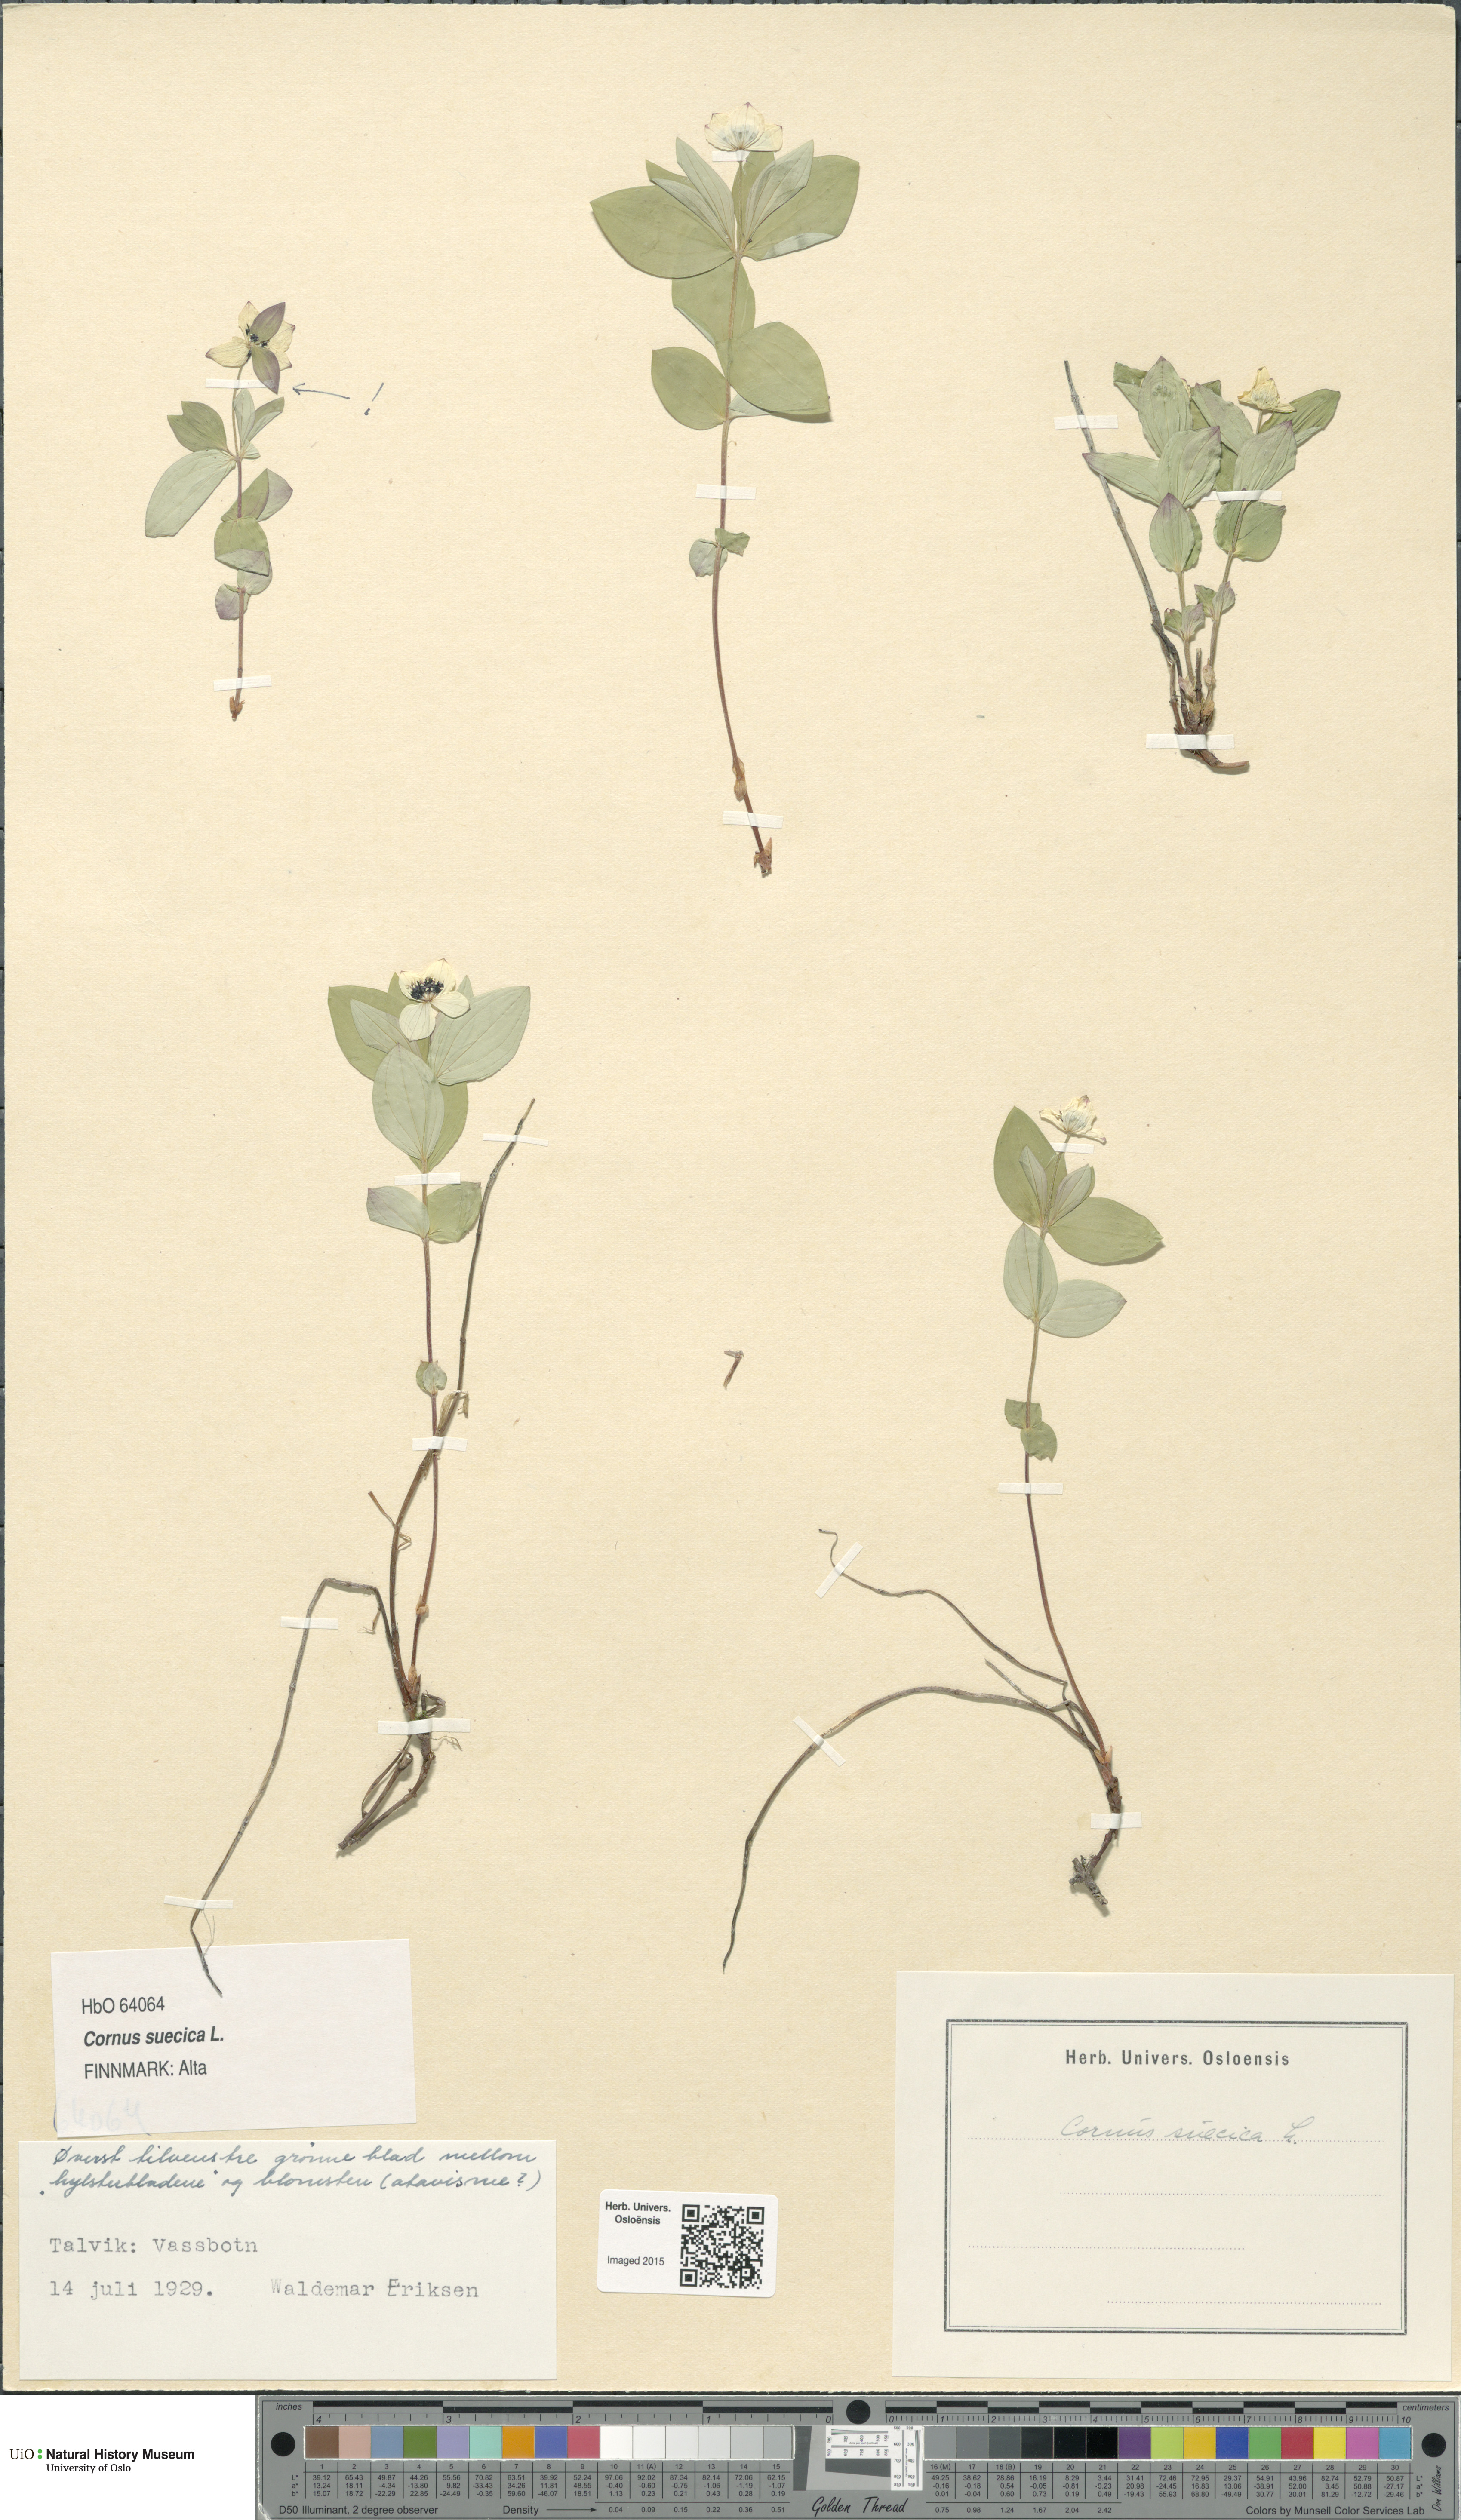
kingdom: Plantae
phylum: Tracheophyta
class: Magnoliopsida
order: Cornales
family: Cornaceae
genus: Cornus
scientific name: Cornus suecica
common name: Dwarf cornel
